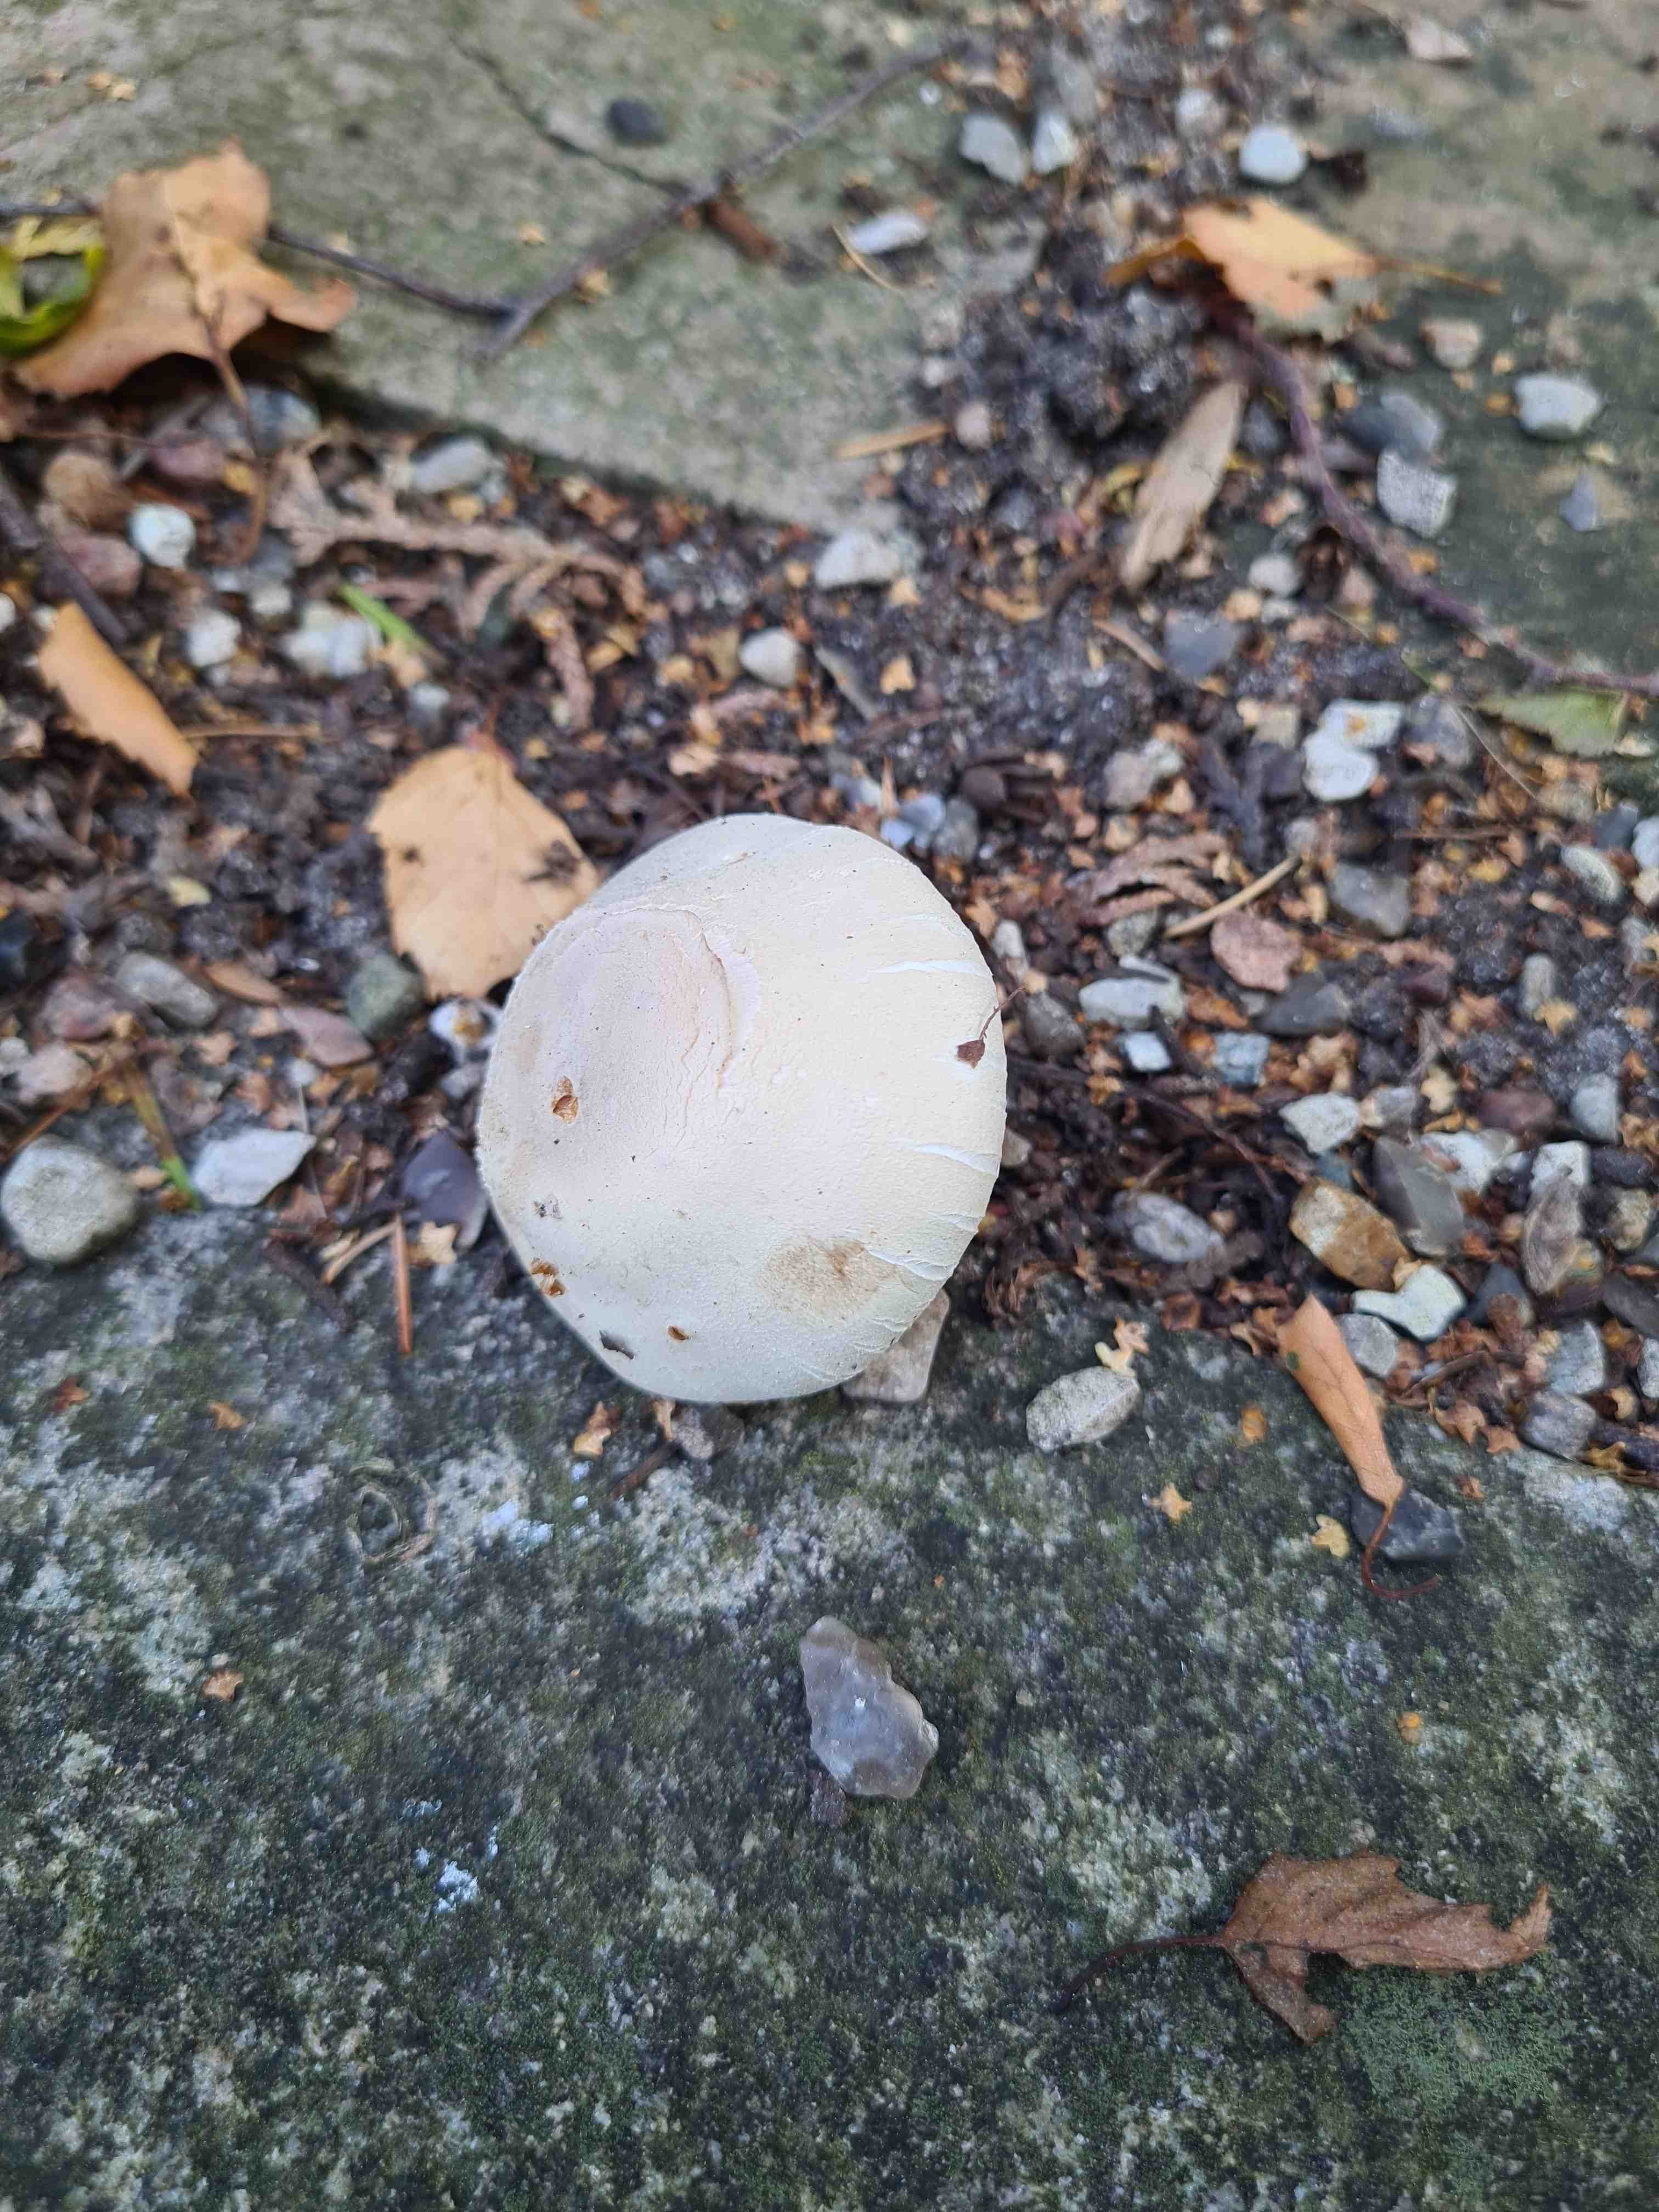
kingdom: Fungi
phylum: Basidiomycota
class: Agaricomycetes
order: Agaricales
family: Agaricaceae
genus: Agaricus
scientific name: Agaricus
